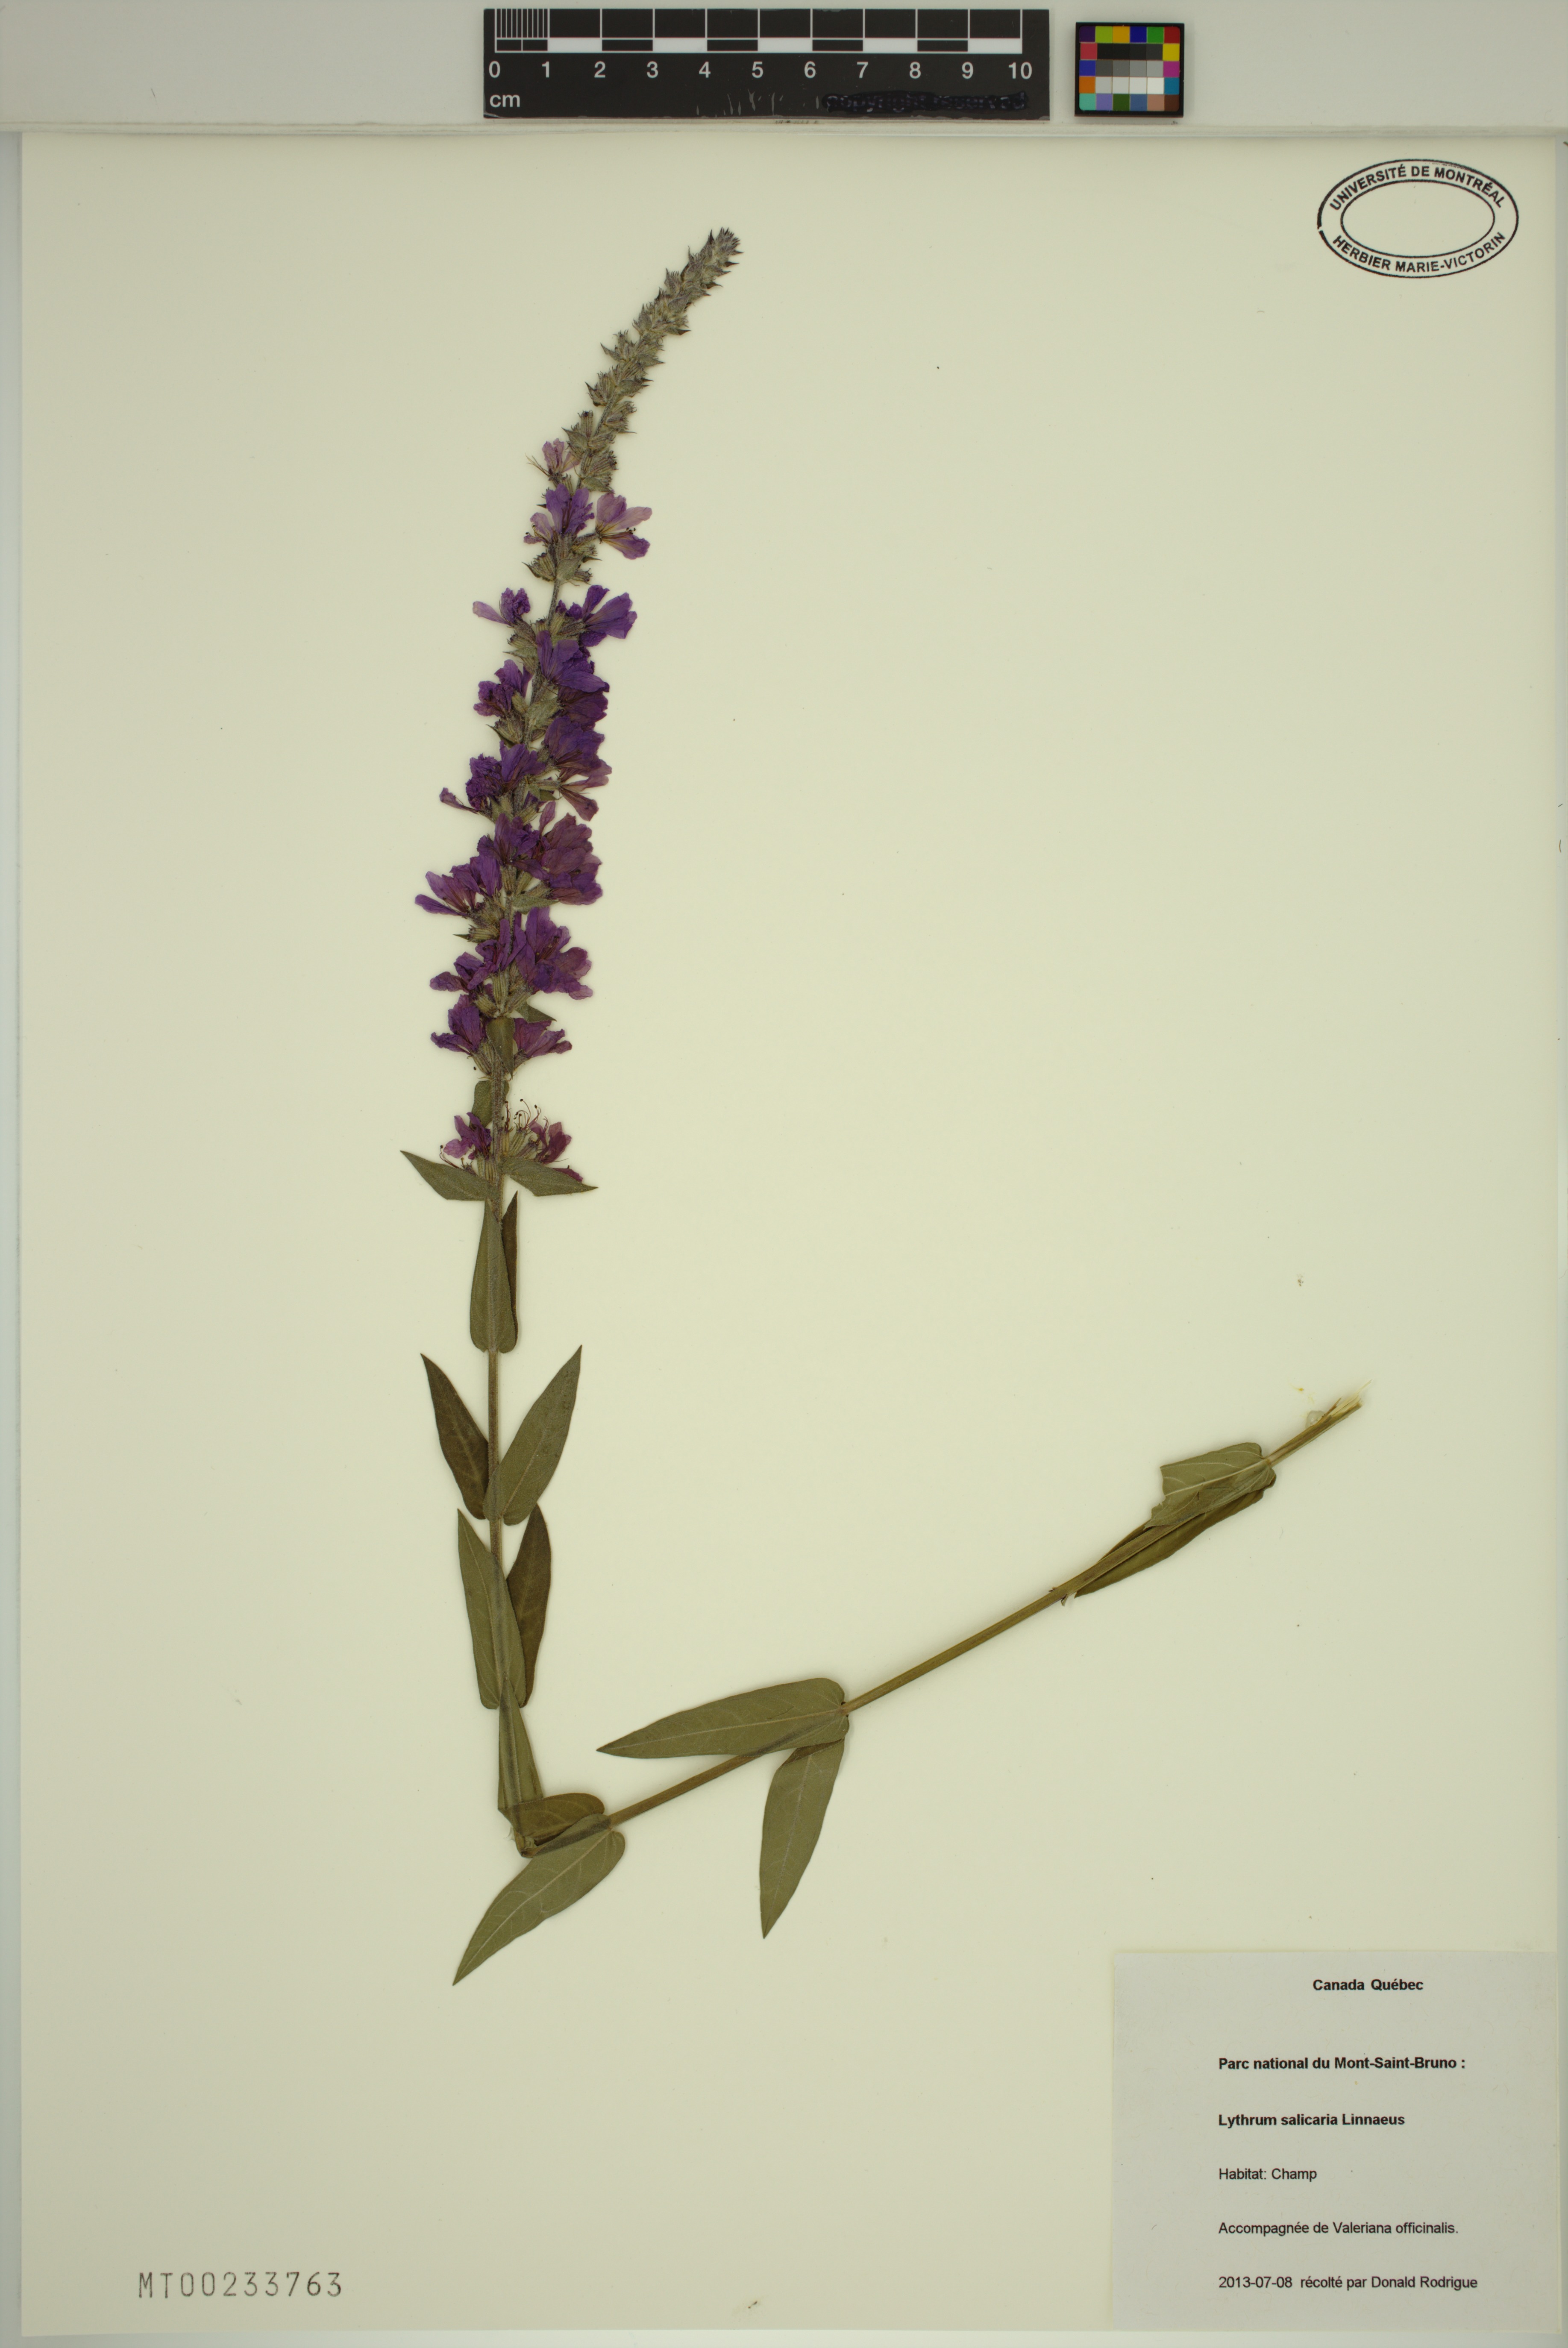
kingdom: Plantae
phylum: Tracheophyta
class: Magnoliopsida
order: Myrtales
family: Lythraceae
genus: Lythrum
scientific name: Lythrum salicaria
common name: Purple loosestrife
